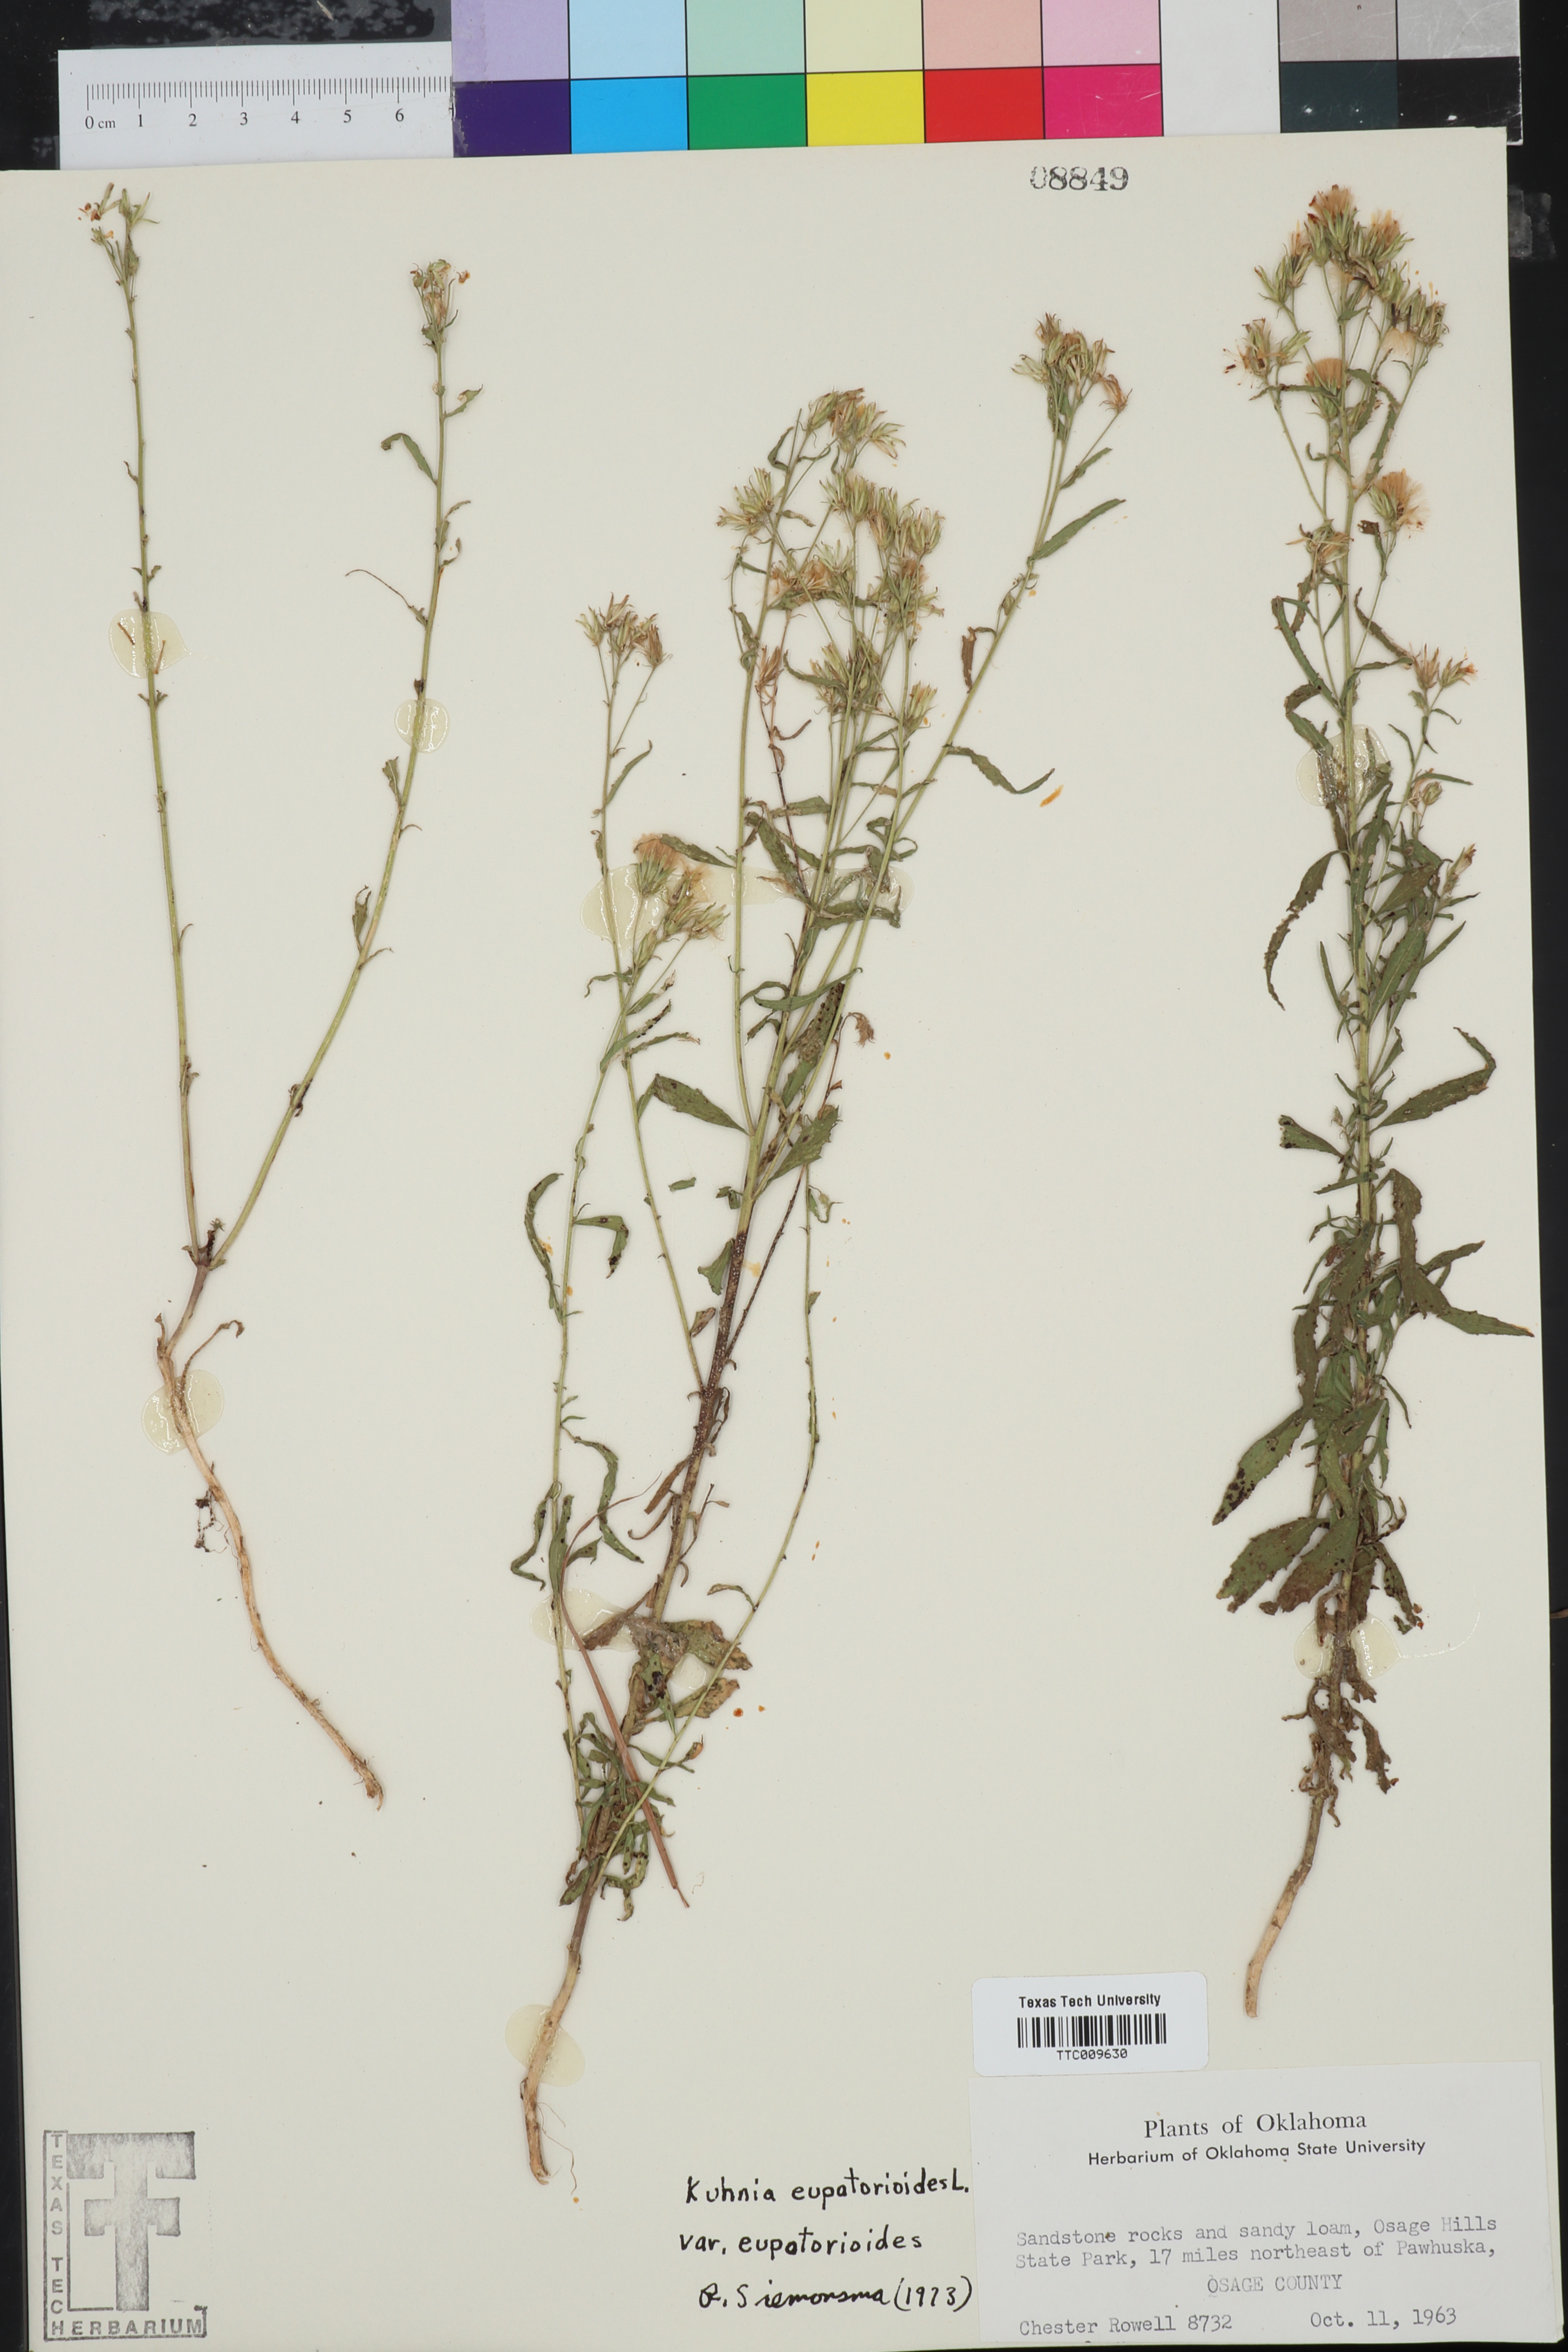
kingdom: Plantae
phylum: Tracheophyta
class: Magnoliopsida
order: Asterales
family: Asteraceae
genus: Brickellia
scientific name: Brickellia eupatorioides
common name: False boneset
